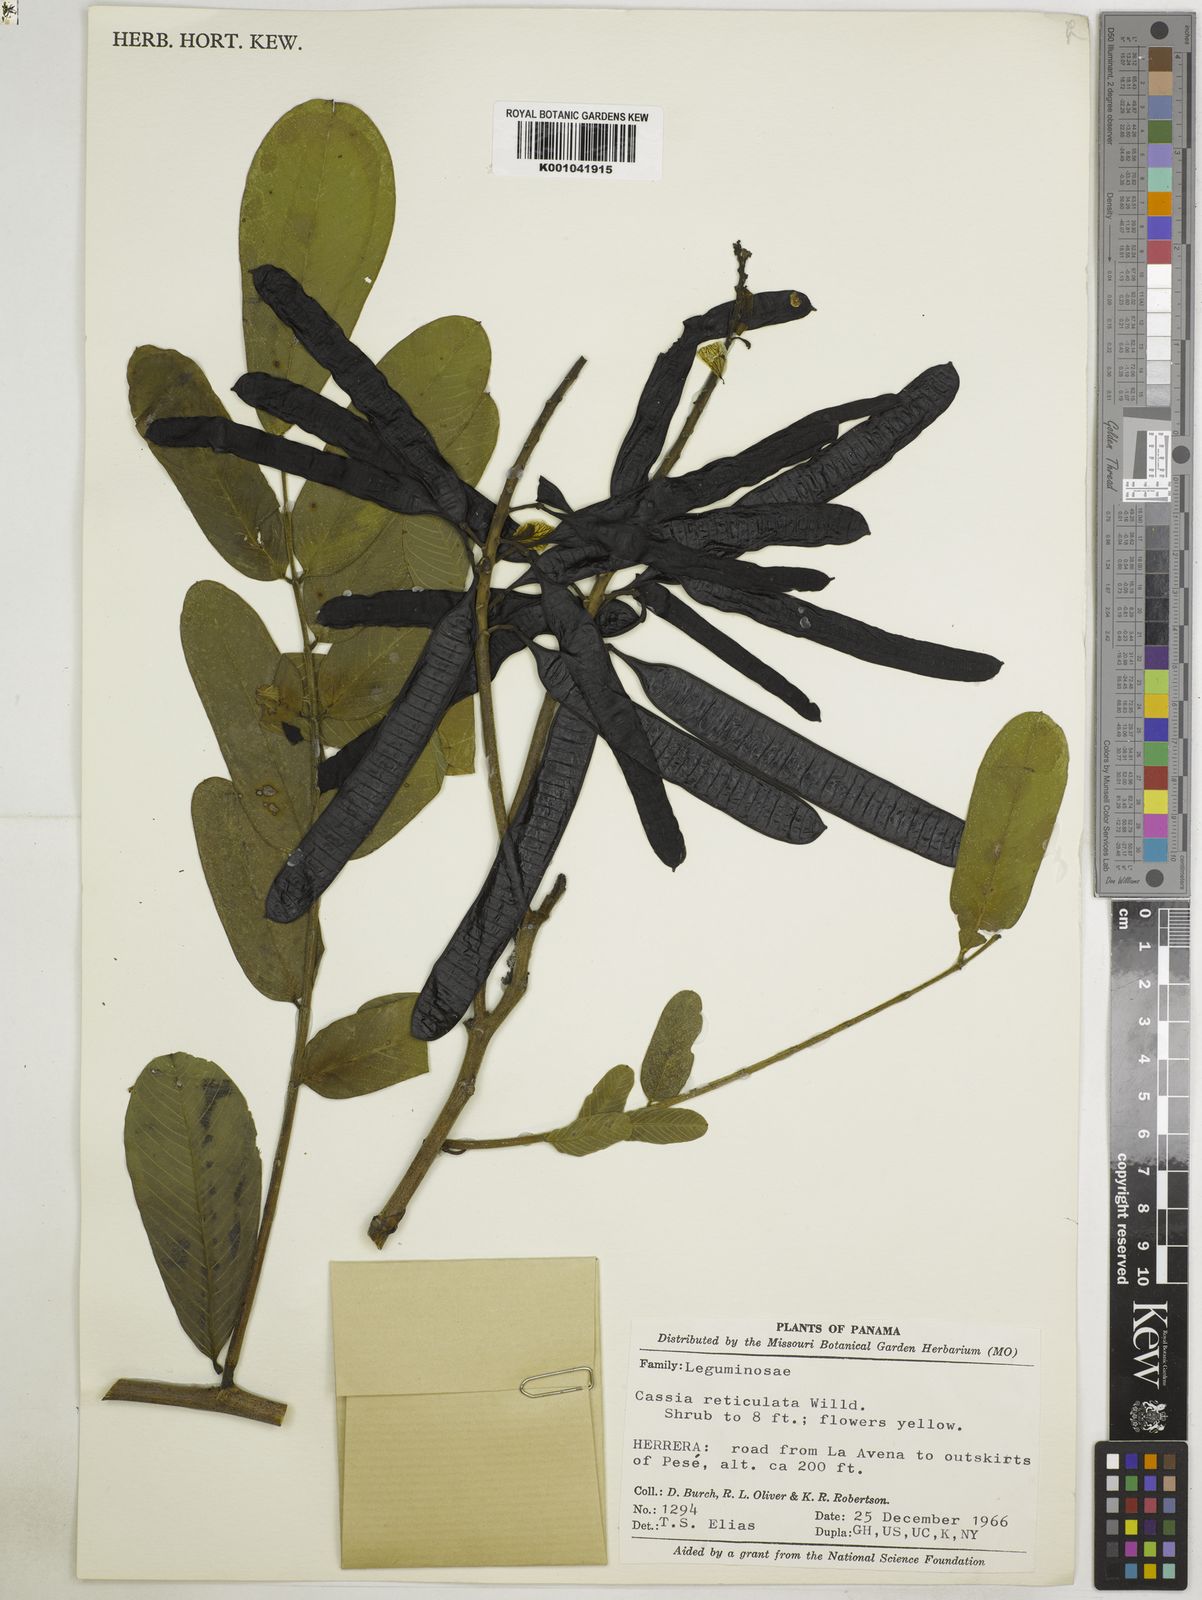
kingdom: Plantae
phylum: Tracheophyta
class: Magnoliopsida
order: Fabales
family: Fabaceae
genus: Senna
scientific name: Senna reticulata
